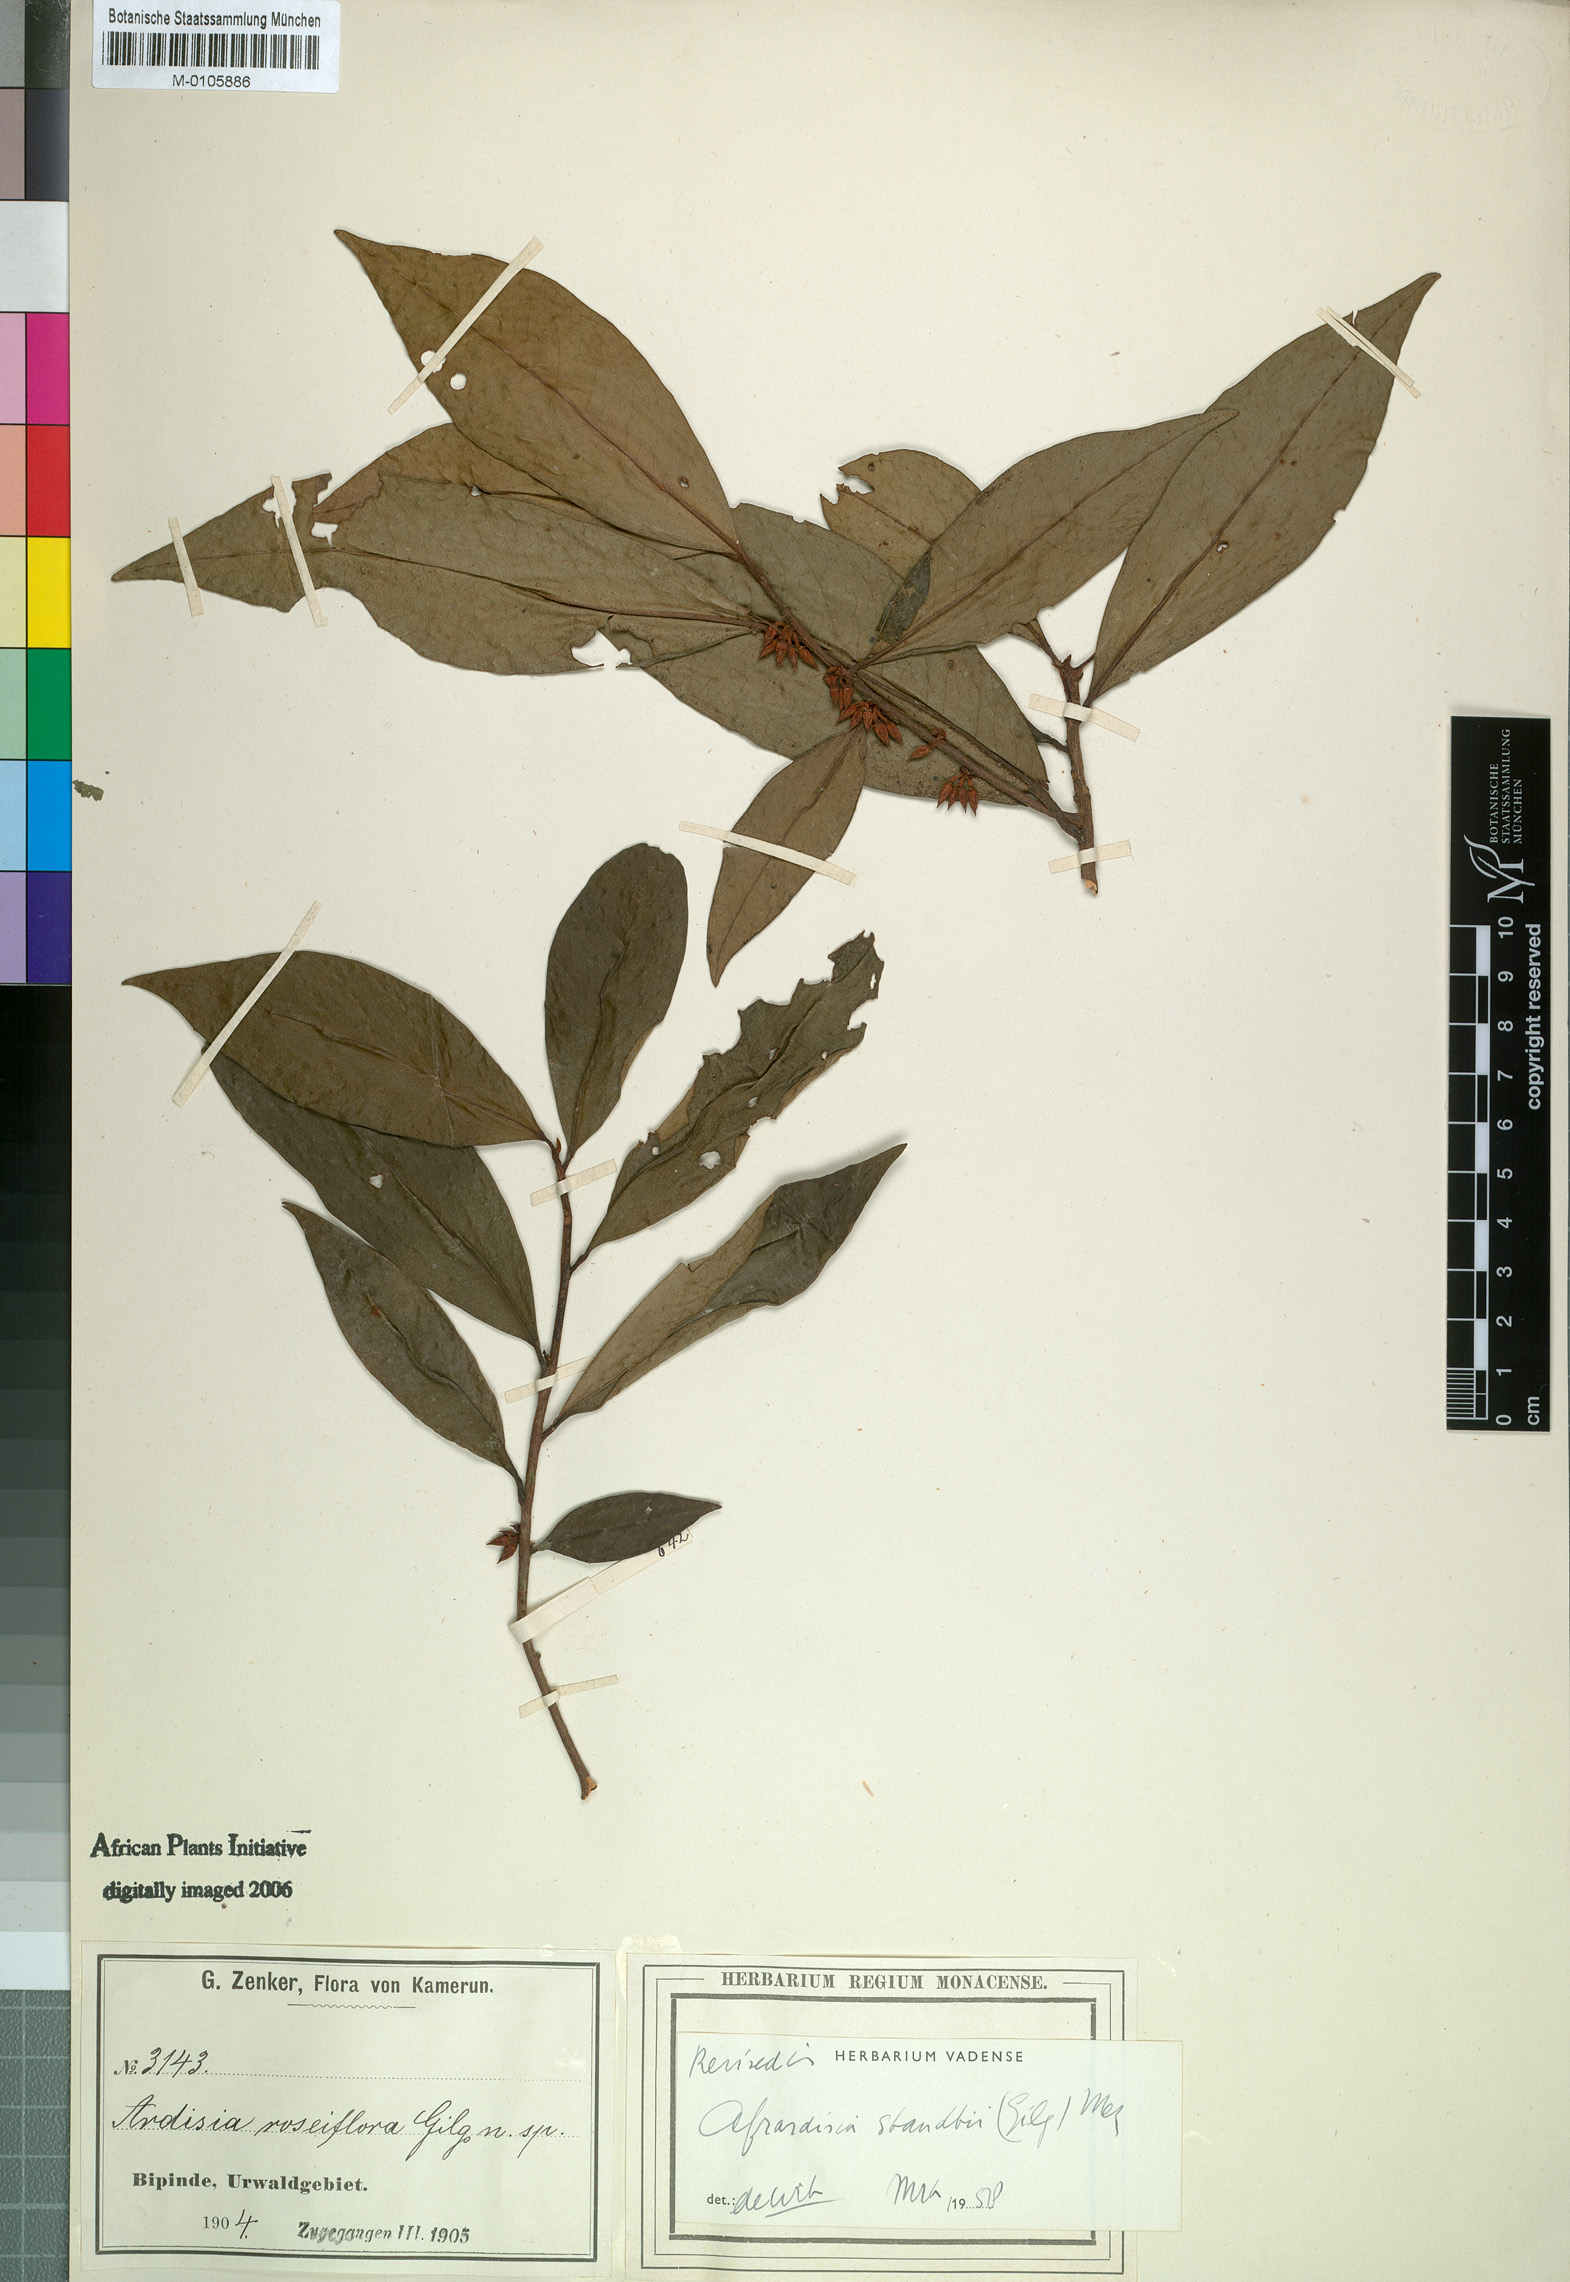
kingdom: Plantae
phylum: Tracheophyta
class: Magnoliopsida
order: Ericales
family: Primulaceae
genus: Ardisia
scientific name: Ardisia staudtii
